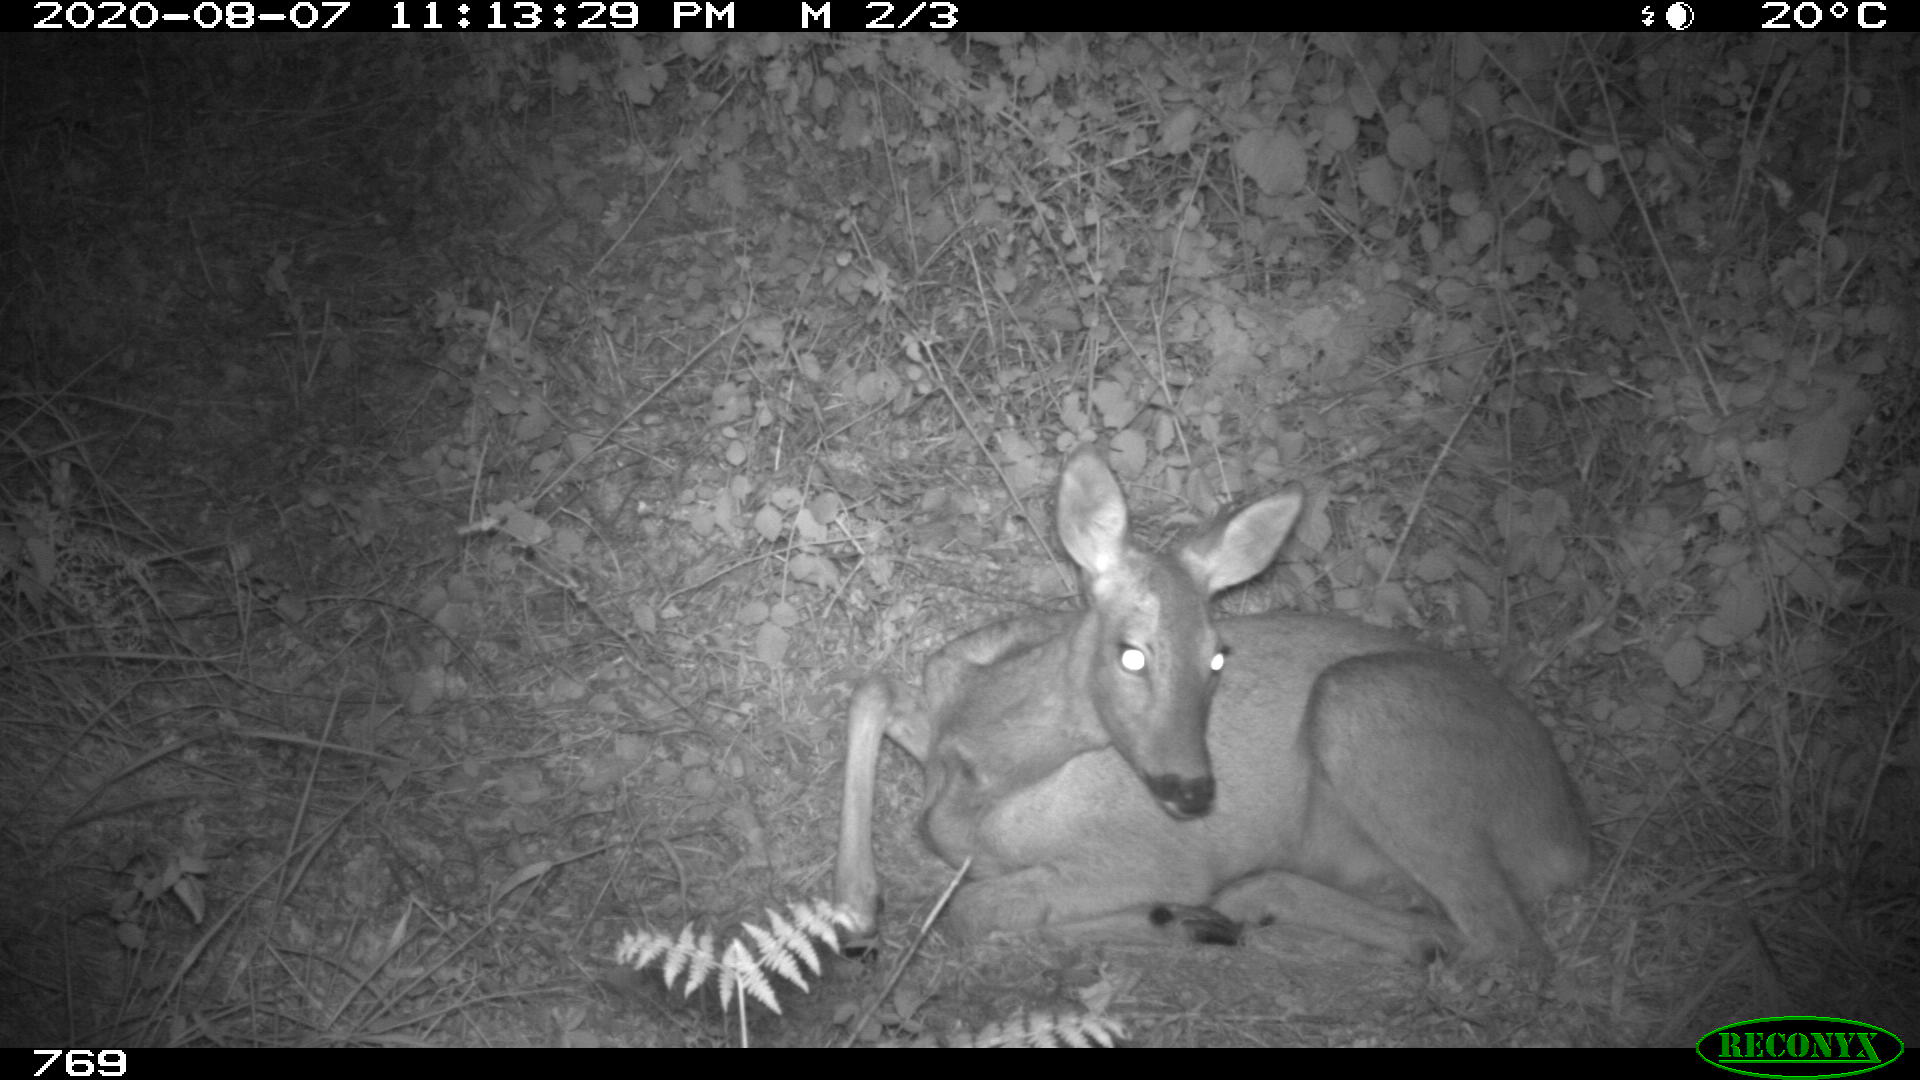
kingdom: Animalia
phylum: Chordata
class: Mammalia
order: Artiodactyla
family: Cervidae
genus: Capreolus
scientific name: Capreolus capreolus
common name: Western roe deer
